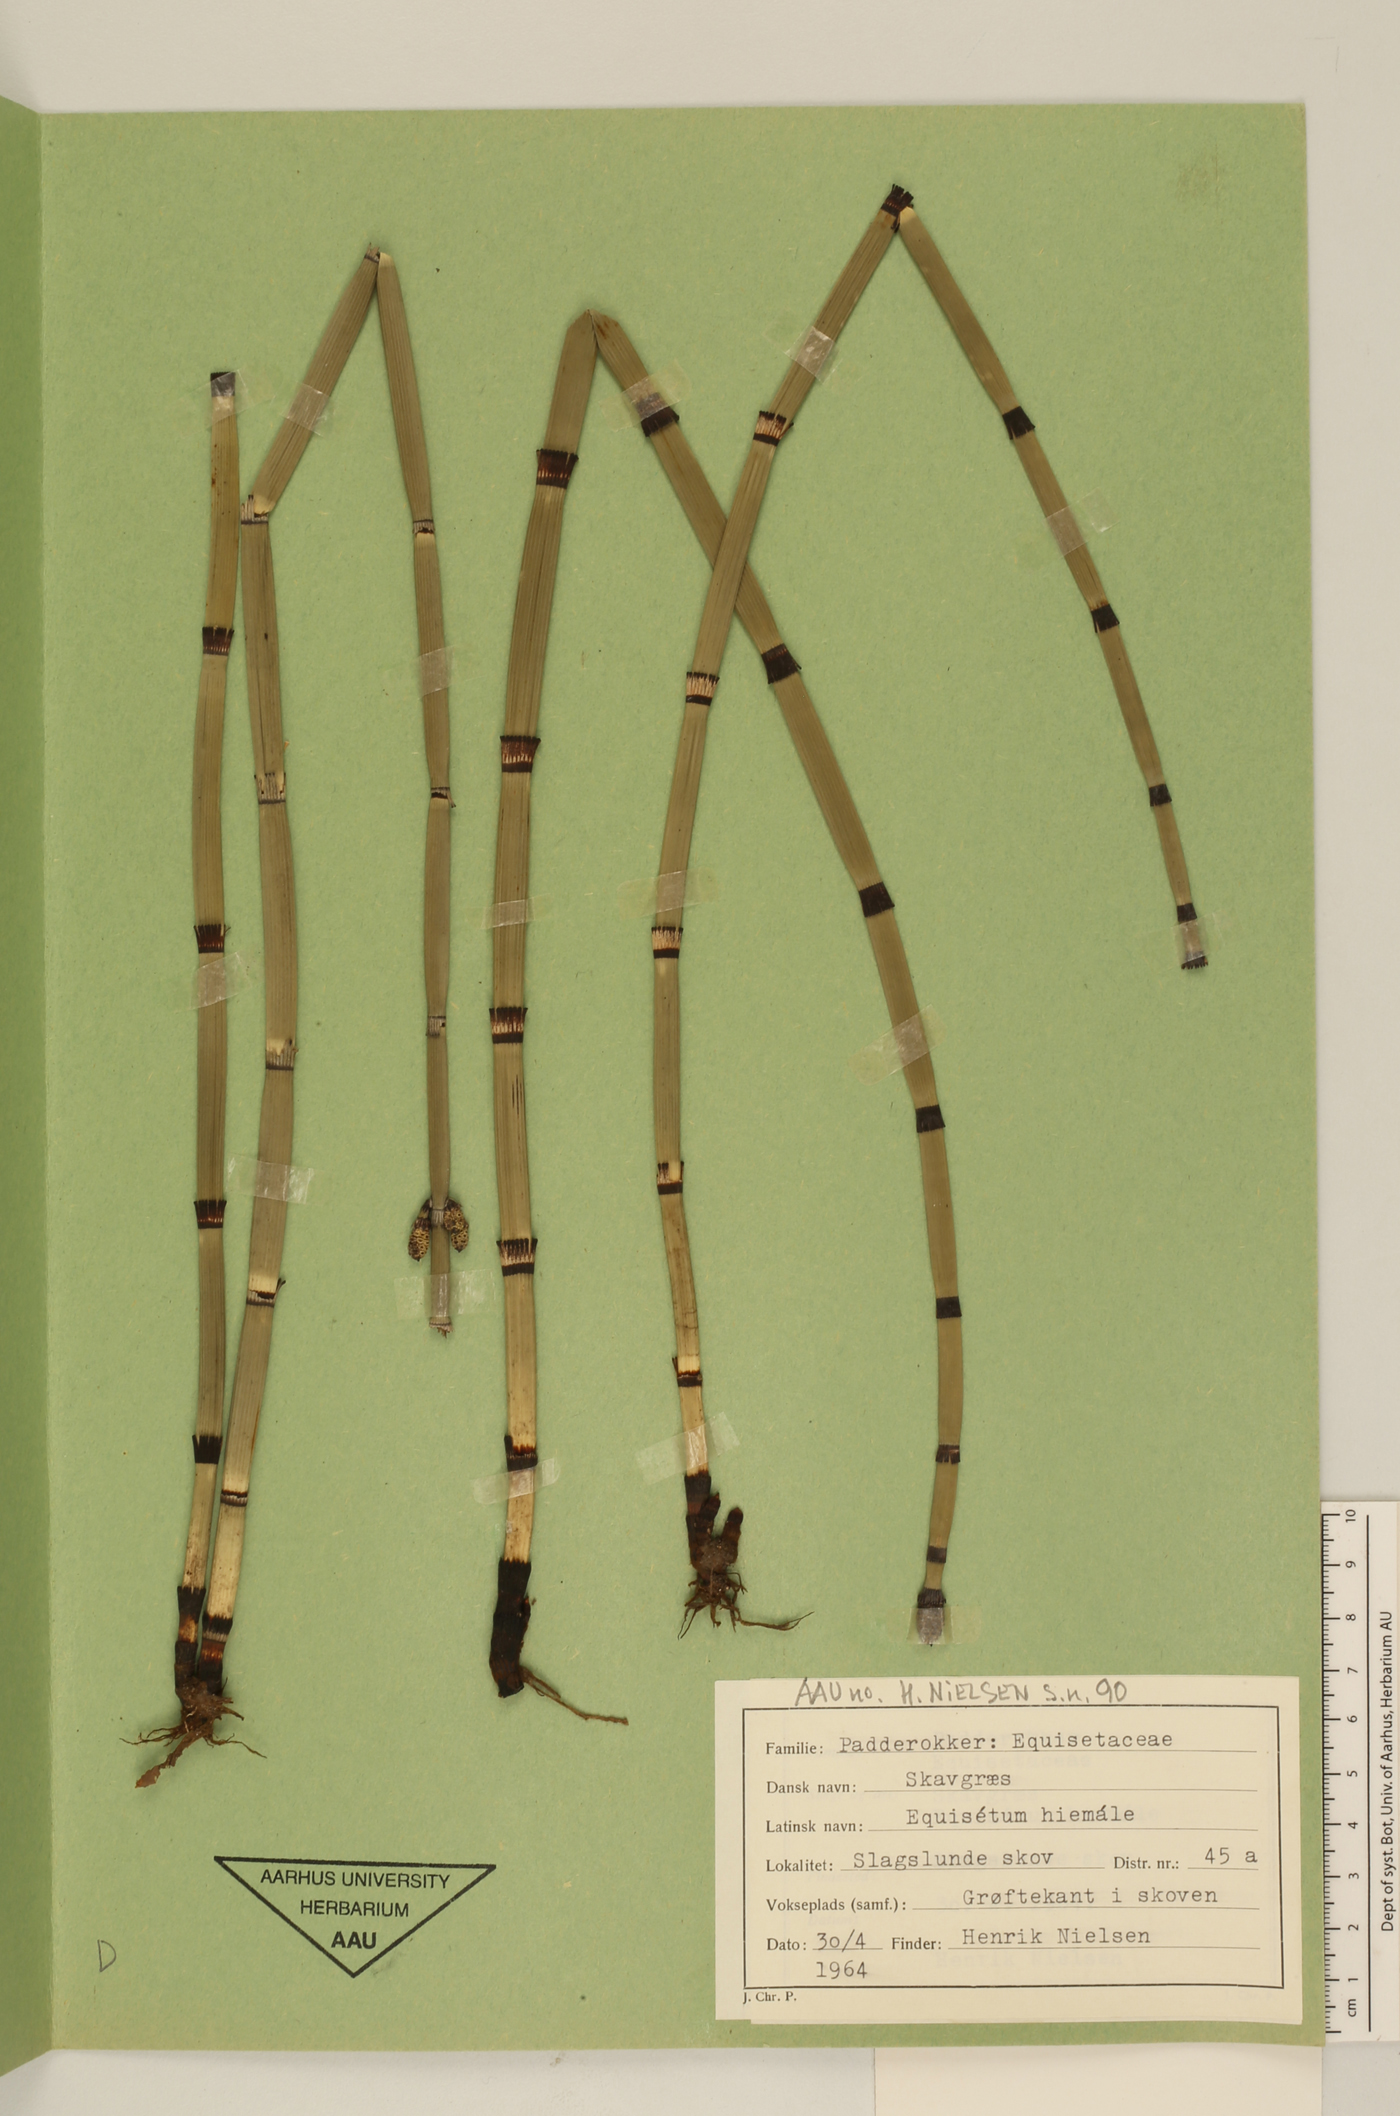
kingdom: Plantae
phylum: Tracheophyta
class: Polypodiopsida
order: Equisetales
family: Equisetaceae
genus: Equisetum
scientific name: Equisetum hyemale
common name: Rough horsetail
